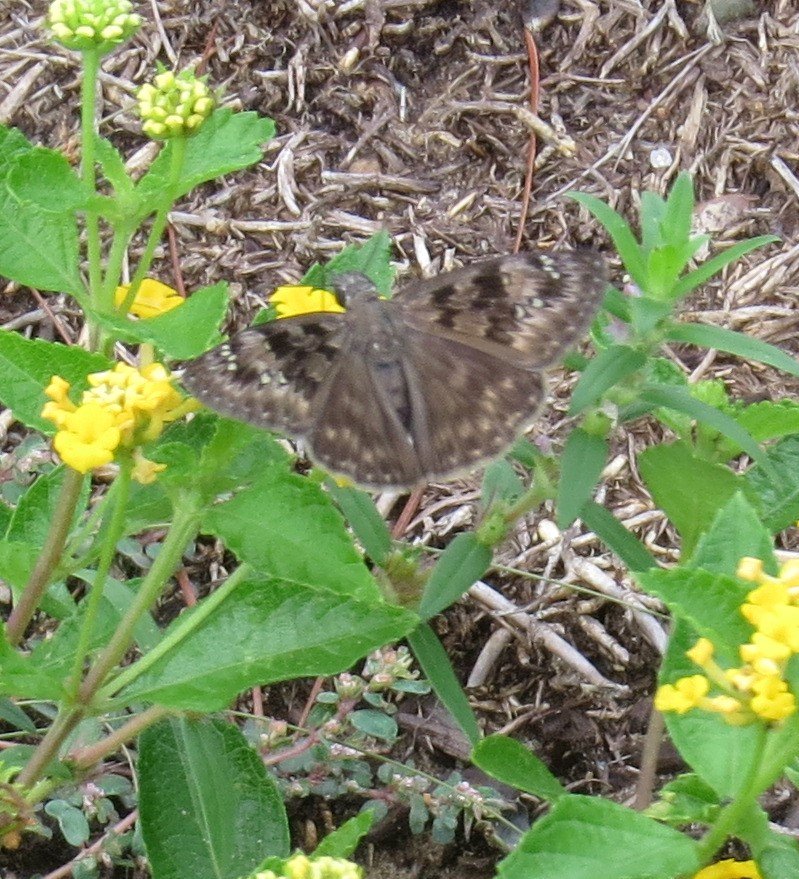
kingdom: Animalia
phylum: Arthropoda
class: Insecta
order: Lepidoptera
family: Hesperiidae
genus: Gesta
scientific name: Gesta
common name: Horace's Duskywing
